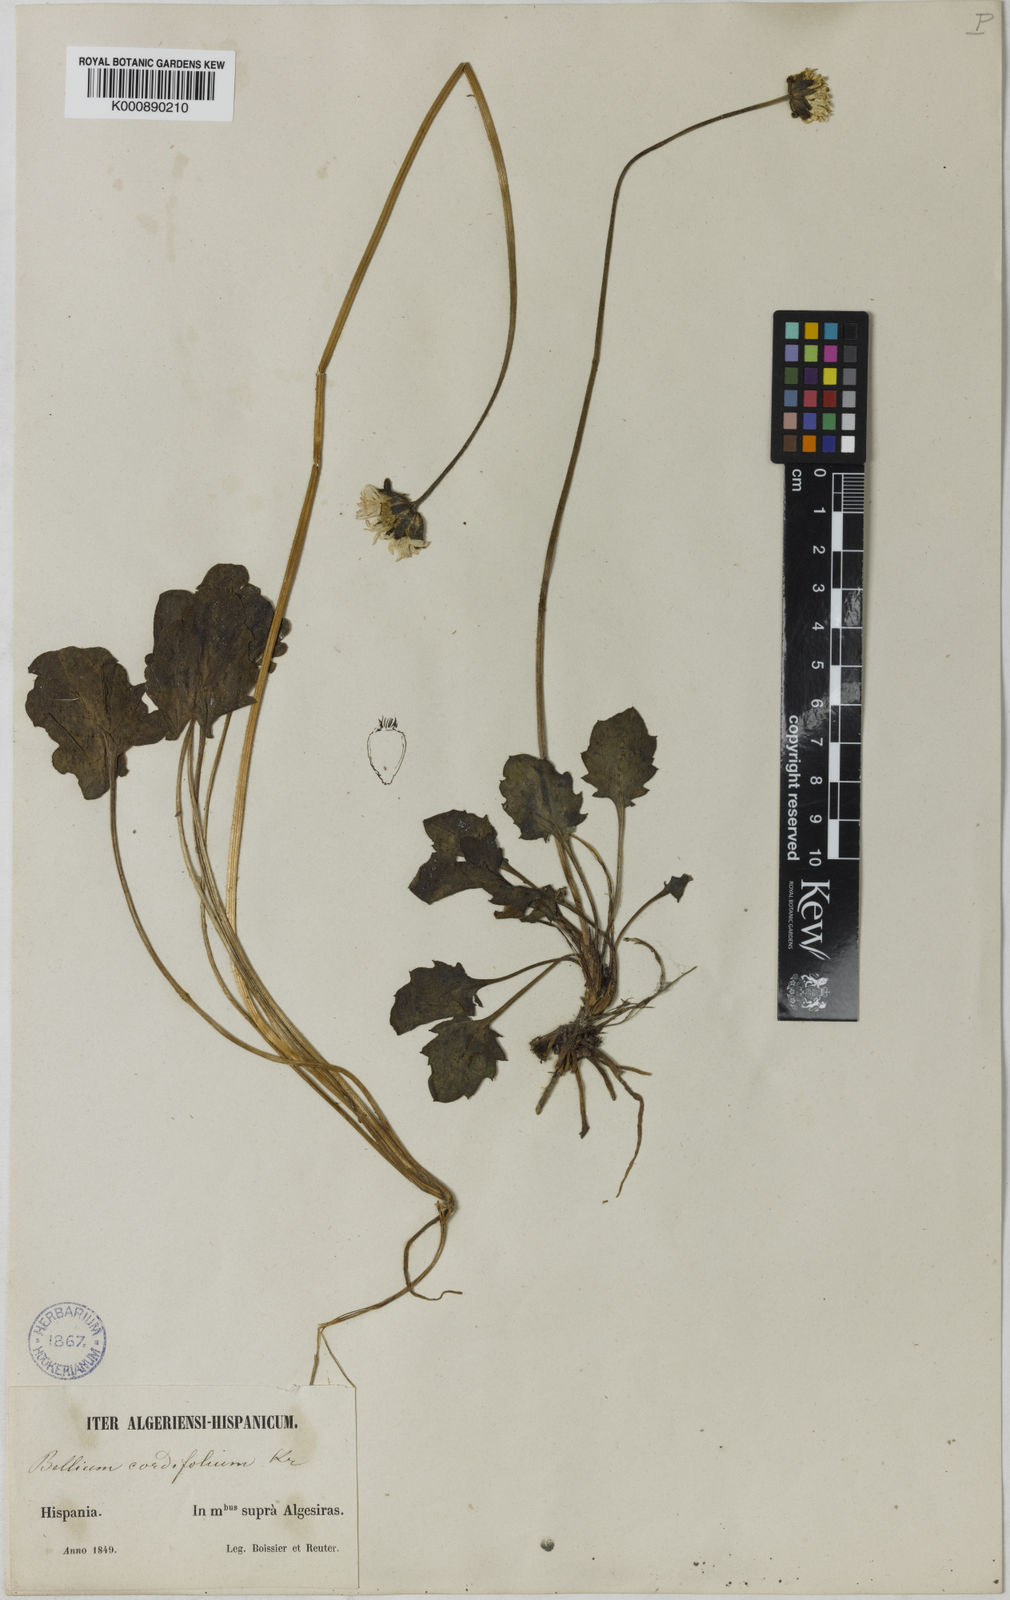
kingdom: Plantae
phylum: Tracheophyta
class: Magnoliopsida
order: Asterales
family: Asteraceae
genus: Bellis
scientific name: Bellis rotundifolia
